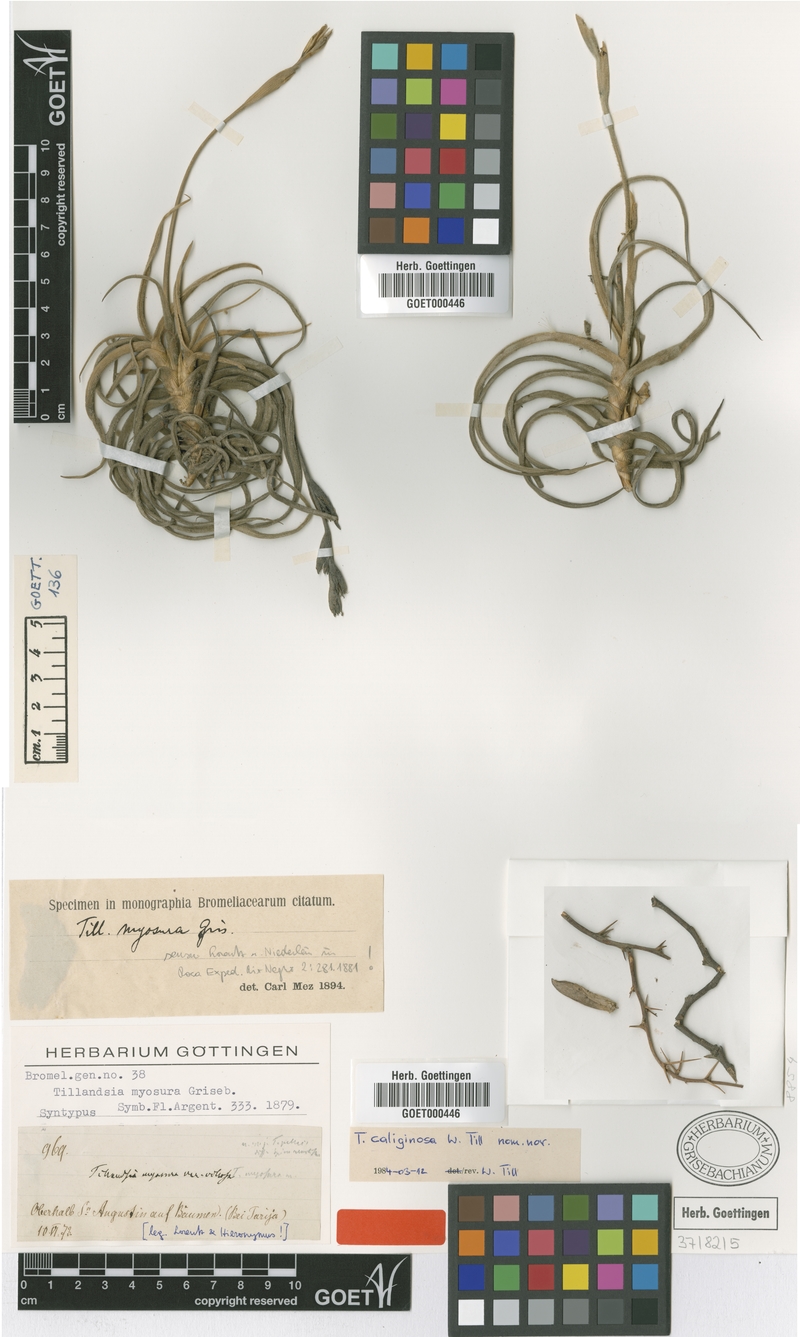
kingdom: Plantae
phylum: Tracheophyta
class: Liliopsida
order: Poales
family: Bromeliaceae
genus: Tillandsia
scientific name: Tillandsia caliginosa
